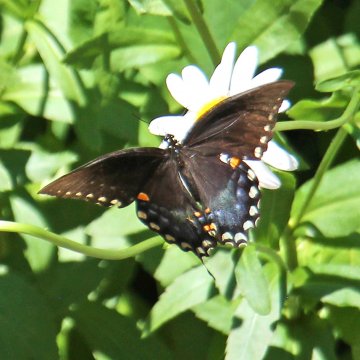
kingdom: Animalia
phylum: Arthropoda
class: Insecta
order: Lepidoptera
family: Papilionidae
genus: Pterourus
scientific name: Pterourus troilus
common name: Spicebush Swallowtail
